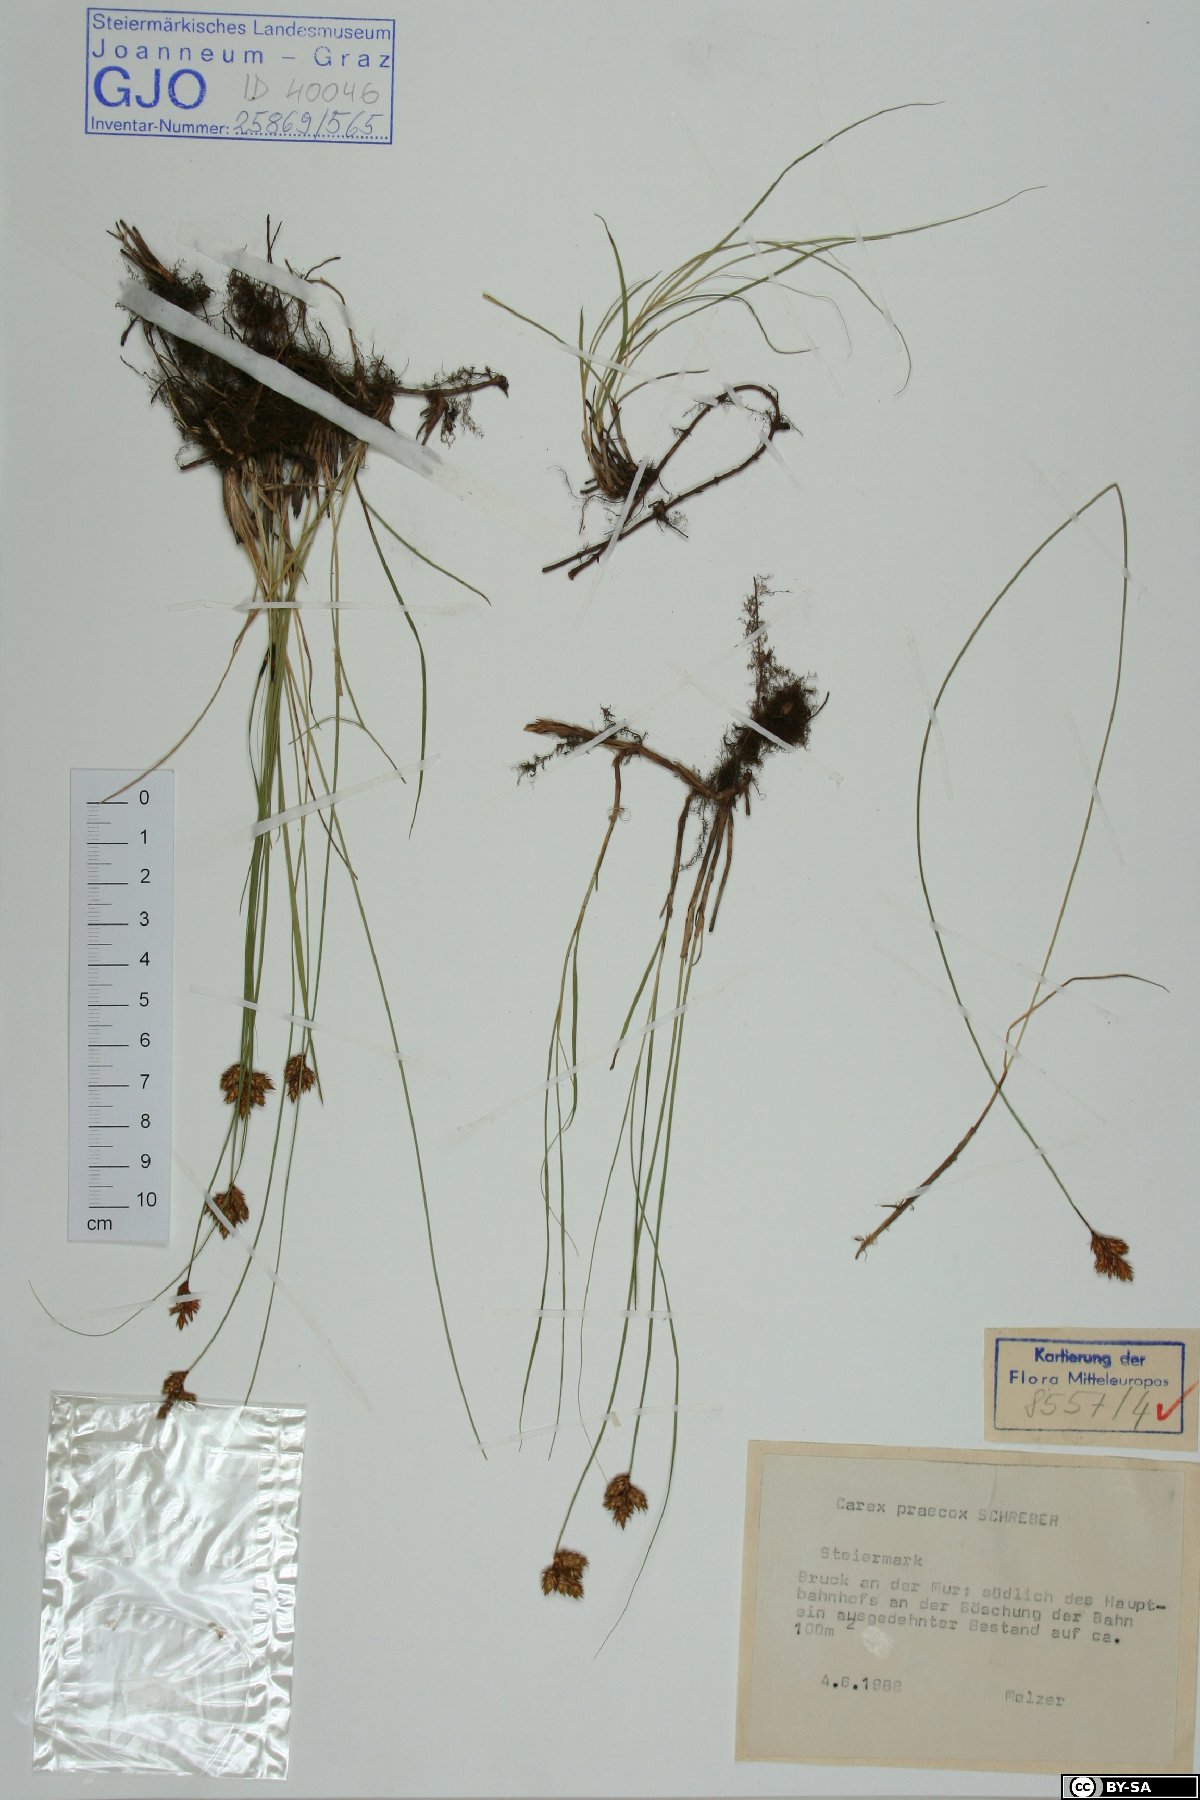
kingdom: Plantae
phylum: Tracheophyta
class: Liliopsida
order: Poales
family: Cyperaceae
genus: Carex
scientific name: Carex praecox
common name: Early sedge
